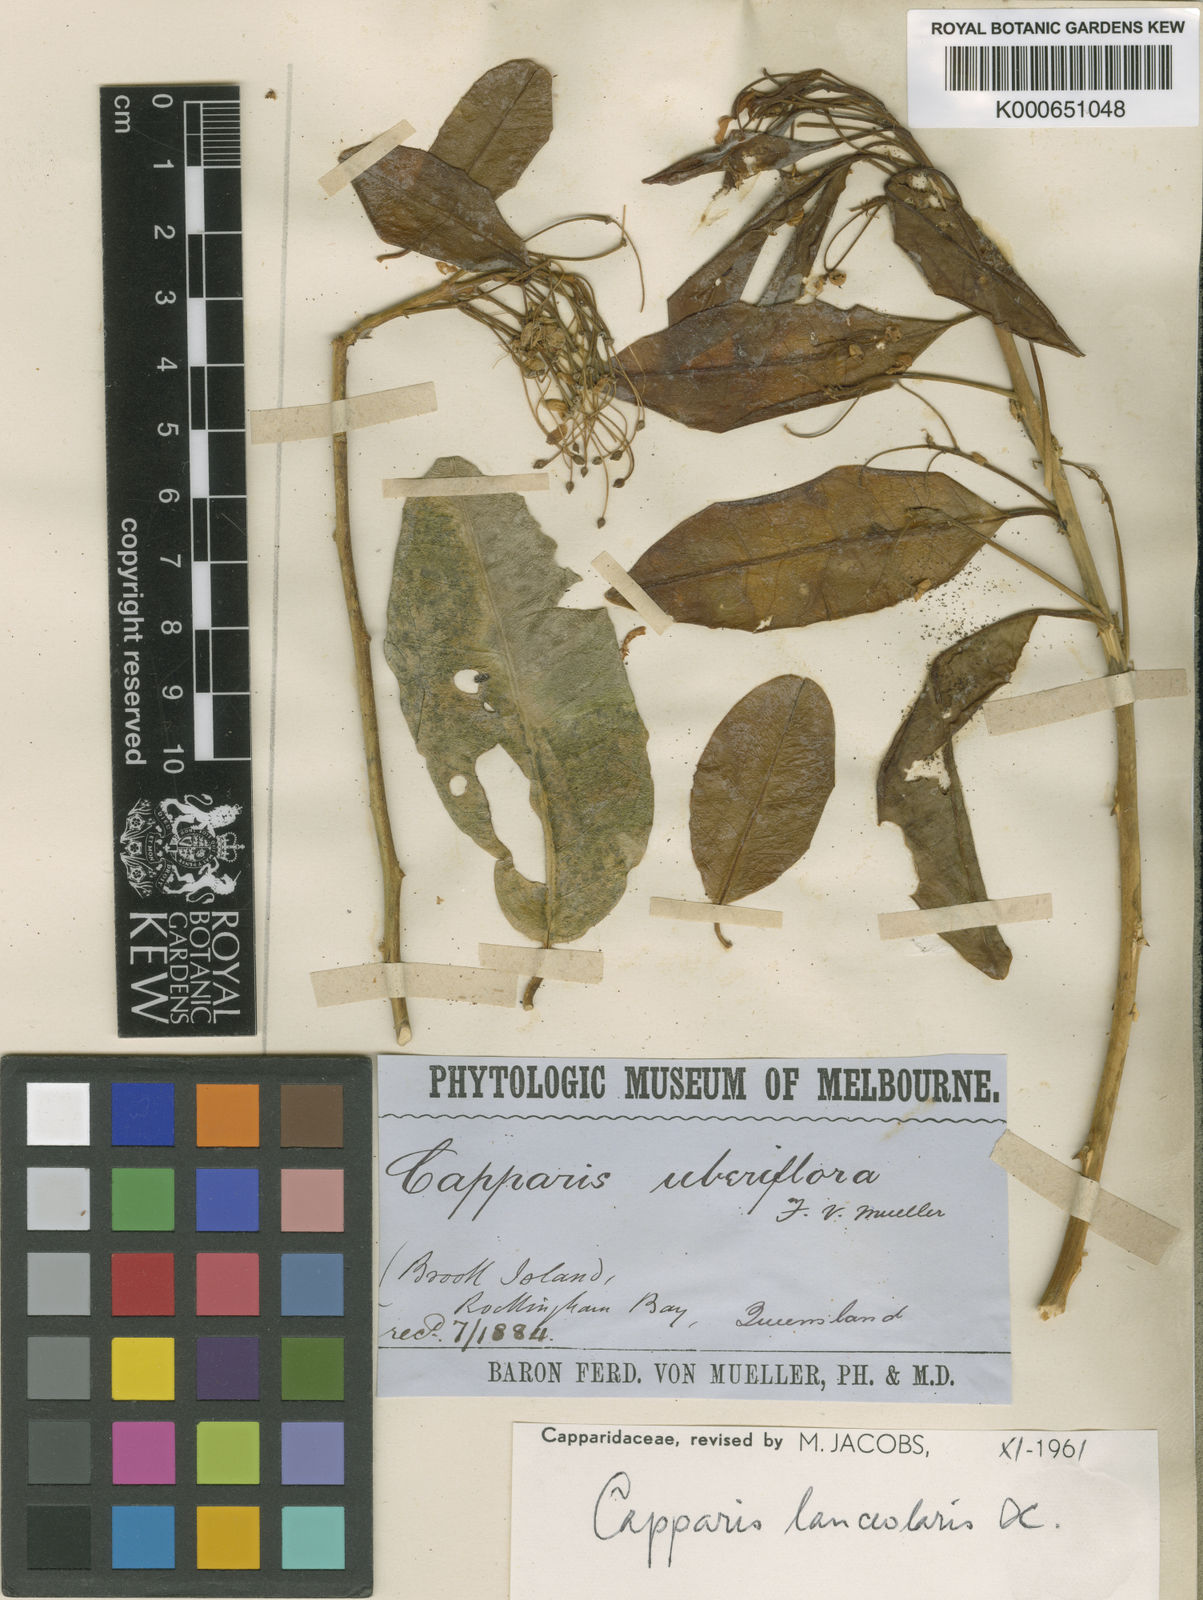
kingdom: Plantae
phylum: Tracheophyta
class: Magnoliopsida
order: Brassicales
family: Capparaceae
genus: Capparis
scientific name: Capparis lanceolaris
